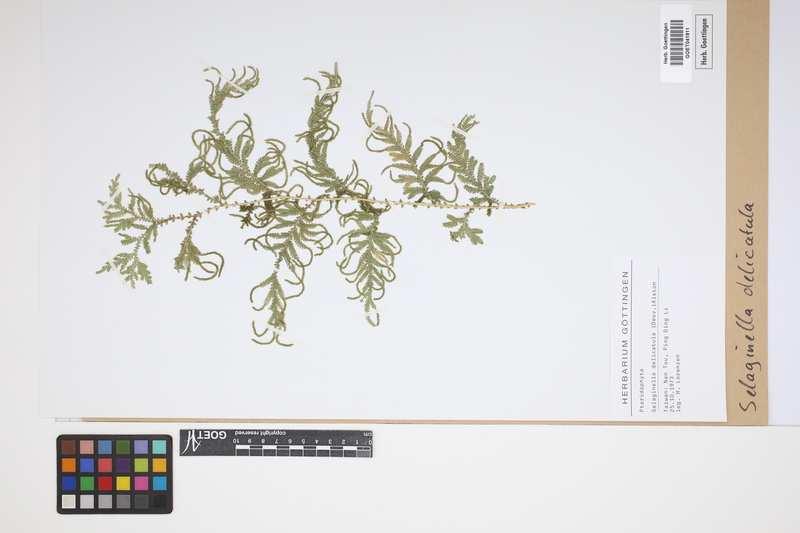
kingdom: Plantae
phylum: Tracheophyta
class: Lycopodiopsida
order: Selaginellales
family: Selaginellaceae
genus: Selaginella
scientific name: Selaginella delicatula
